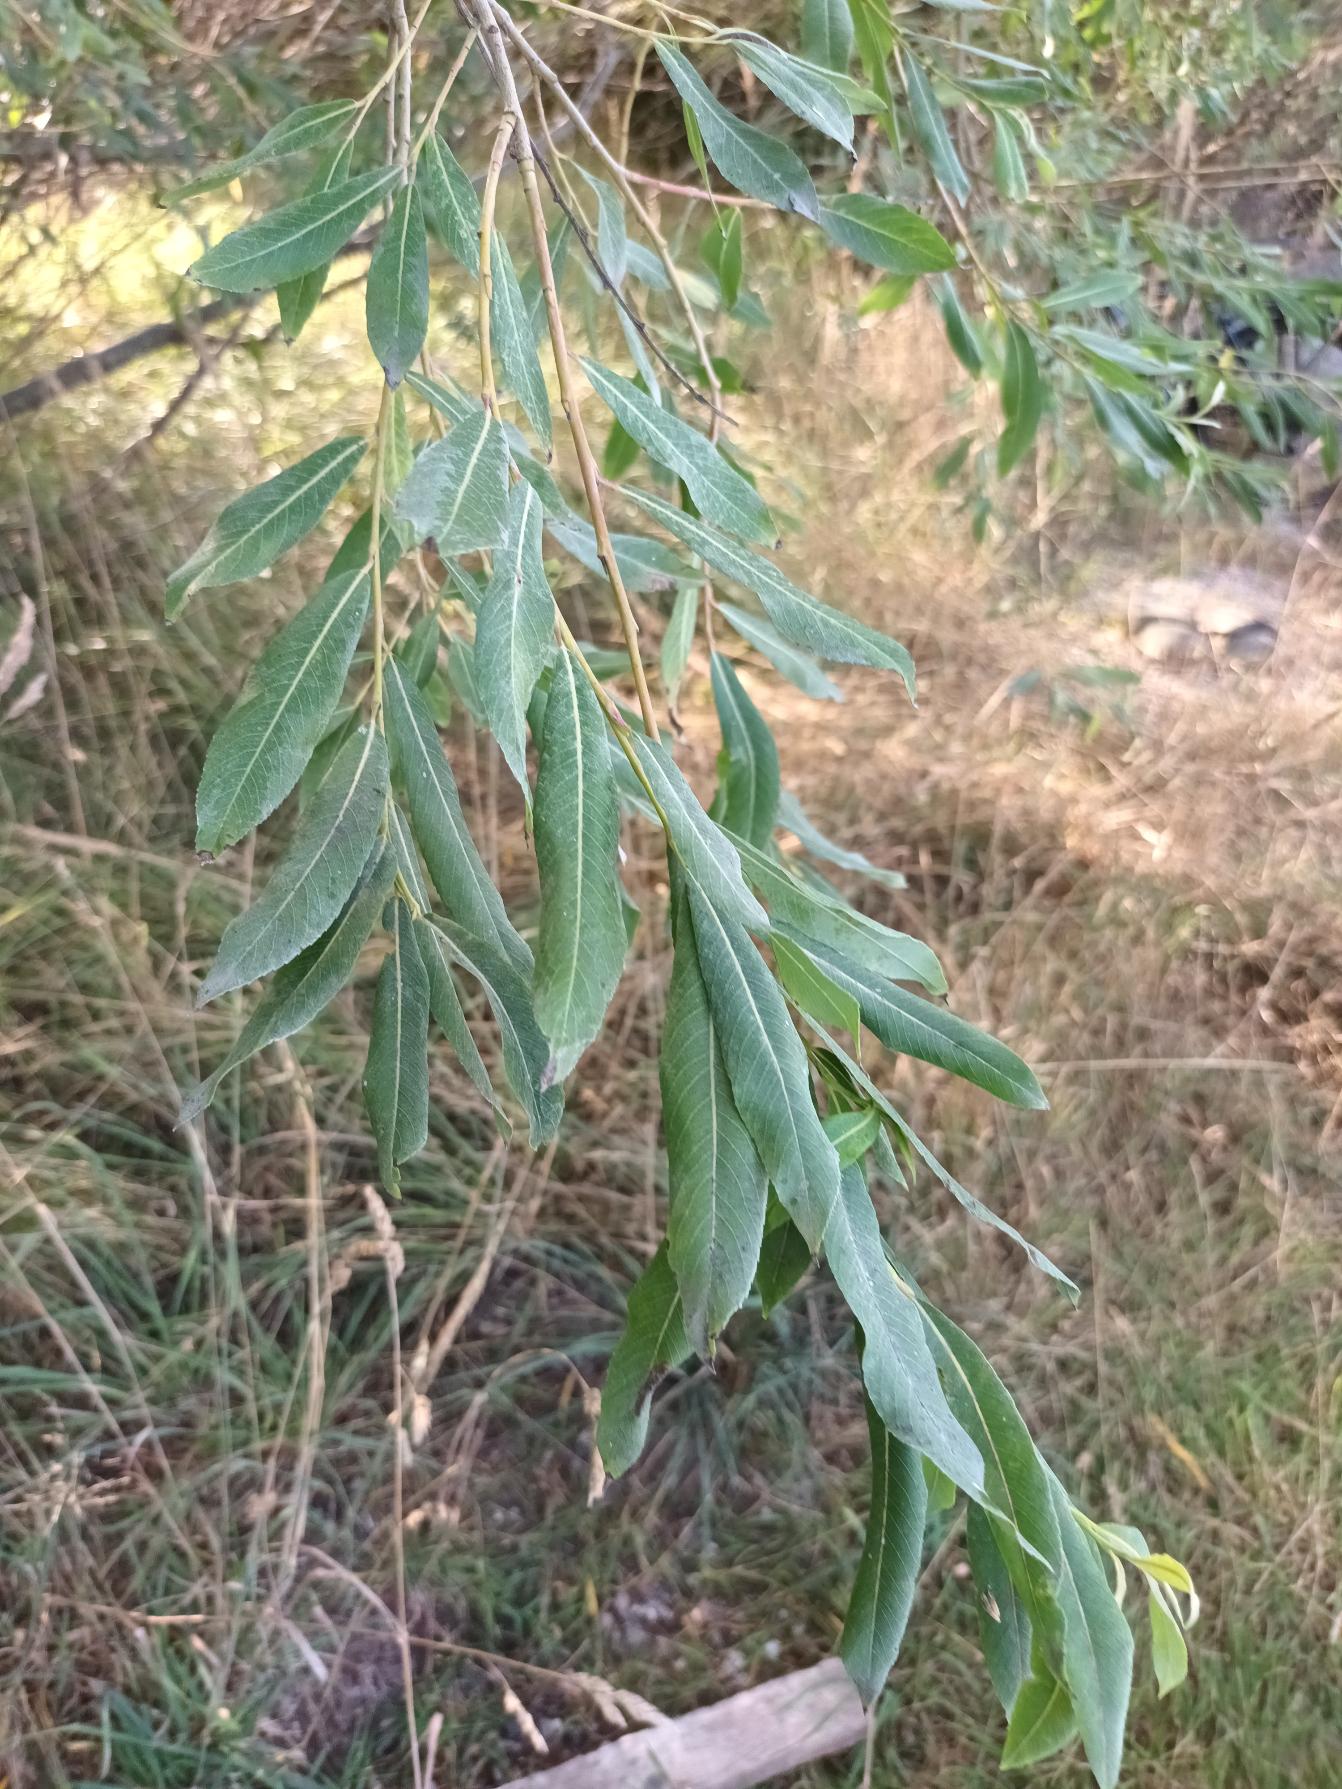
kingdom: Plantae
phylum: Tracheophyta
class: Magnoliopsida
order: Malpighiales
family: Salicaceae
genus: Salix
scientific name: Salix purpurea
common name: Purpur-pil
